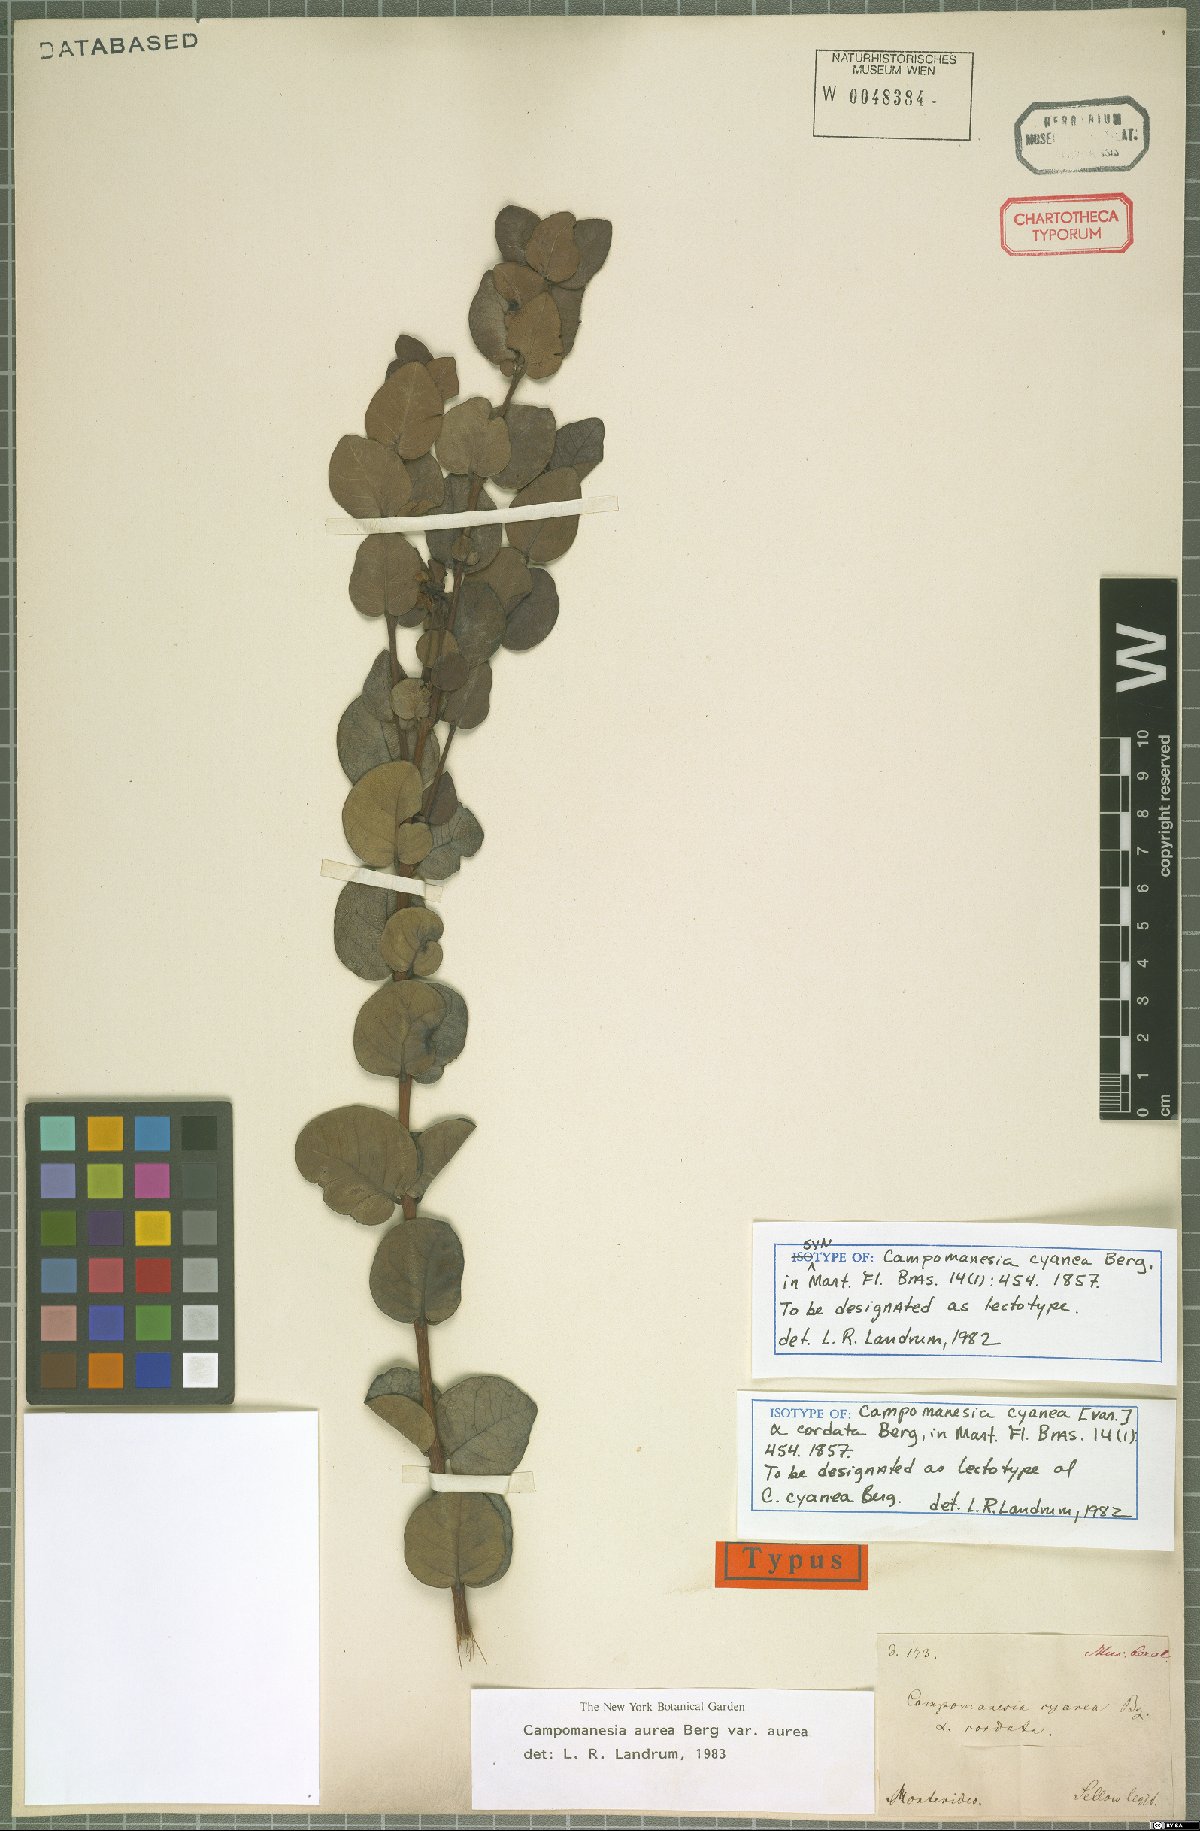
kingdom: Plantae
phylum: Tracheophyta
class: Magnoliopsida
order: Myrtales
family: Myrtaceae
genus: Campomanesia
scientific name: Campomanesia aurea
